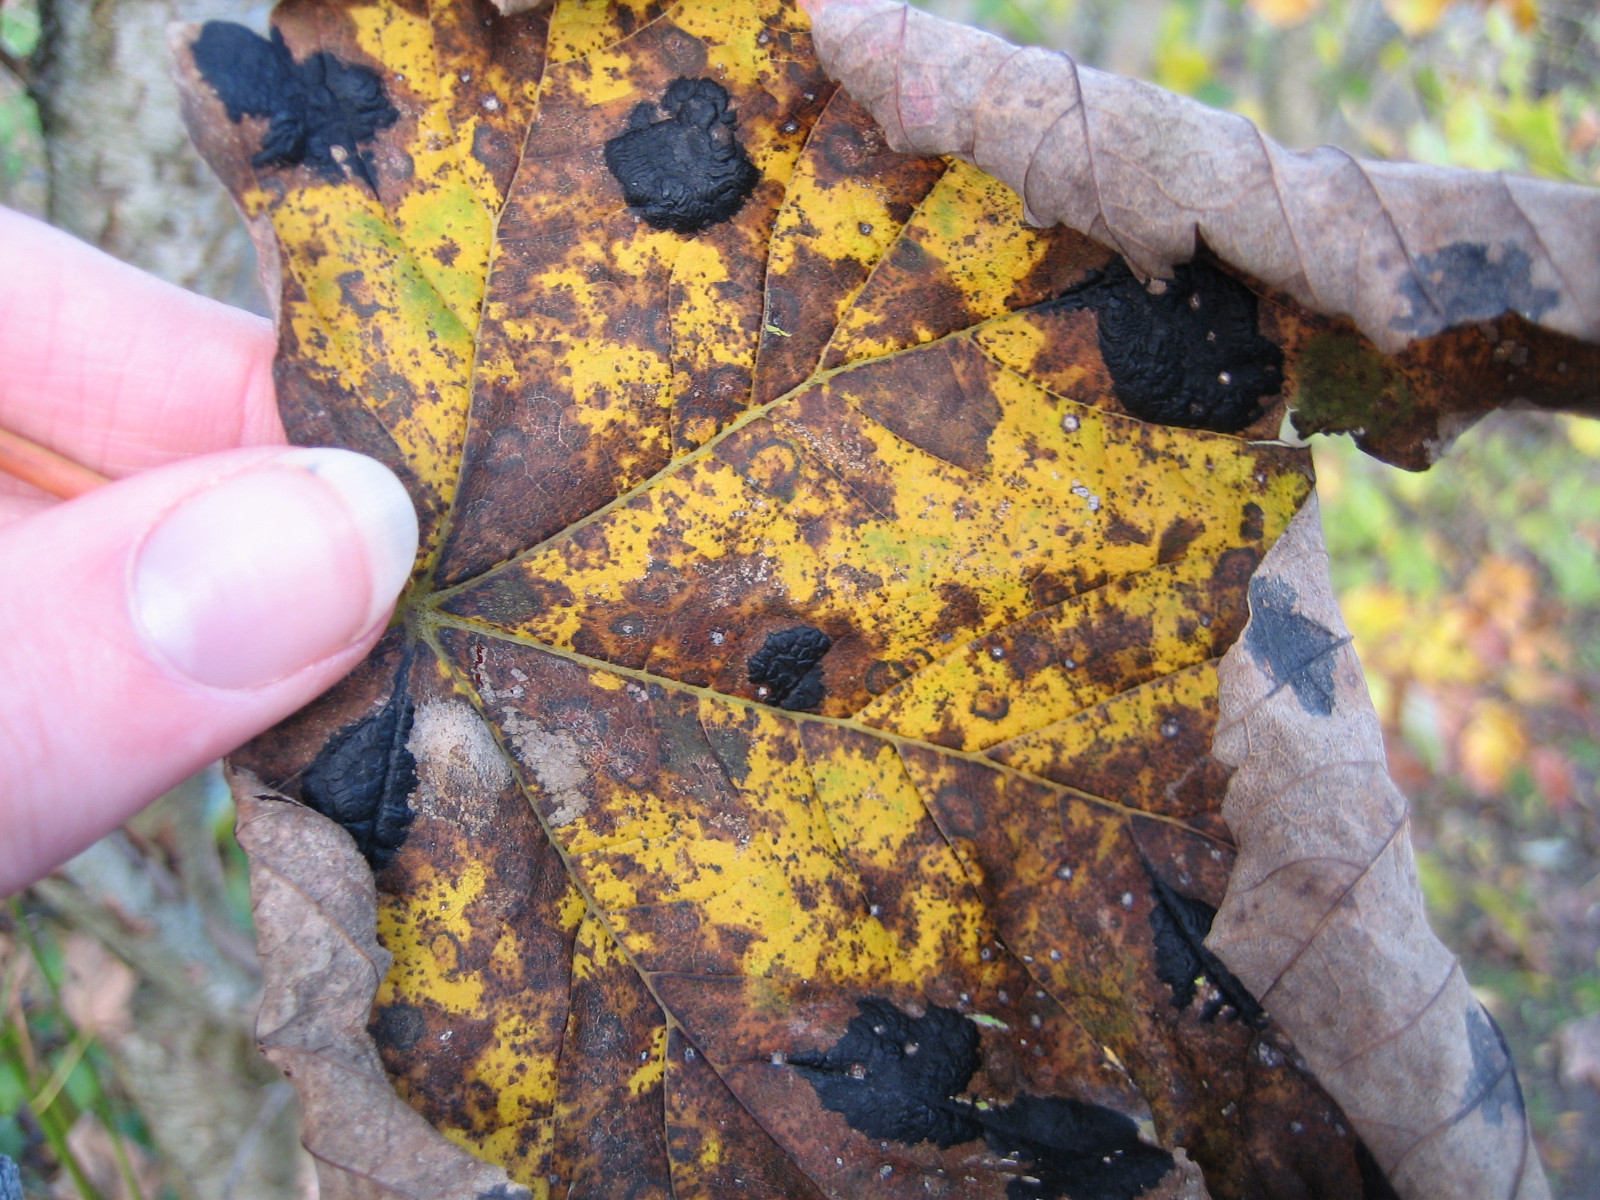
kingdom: Fungi
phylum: Ascomycota
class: Leotiomycetes
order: Rhytismatales
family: Rhytismataceae
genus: Rhytisma
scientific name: Rhytisma acerinum
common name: ahorn-rynkeplet
